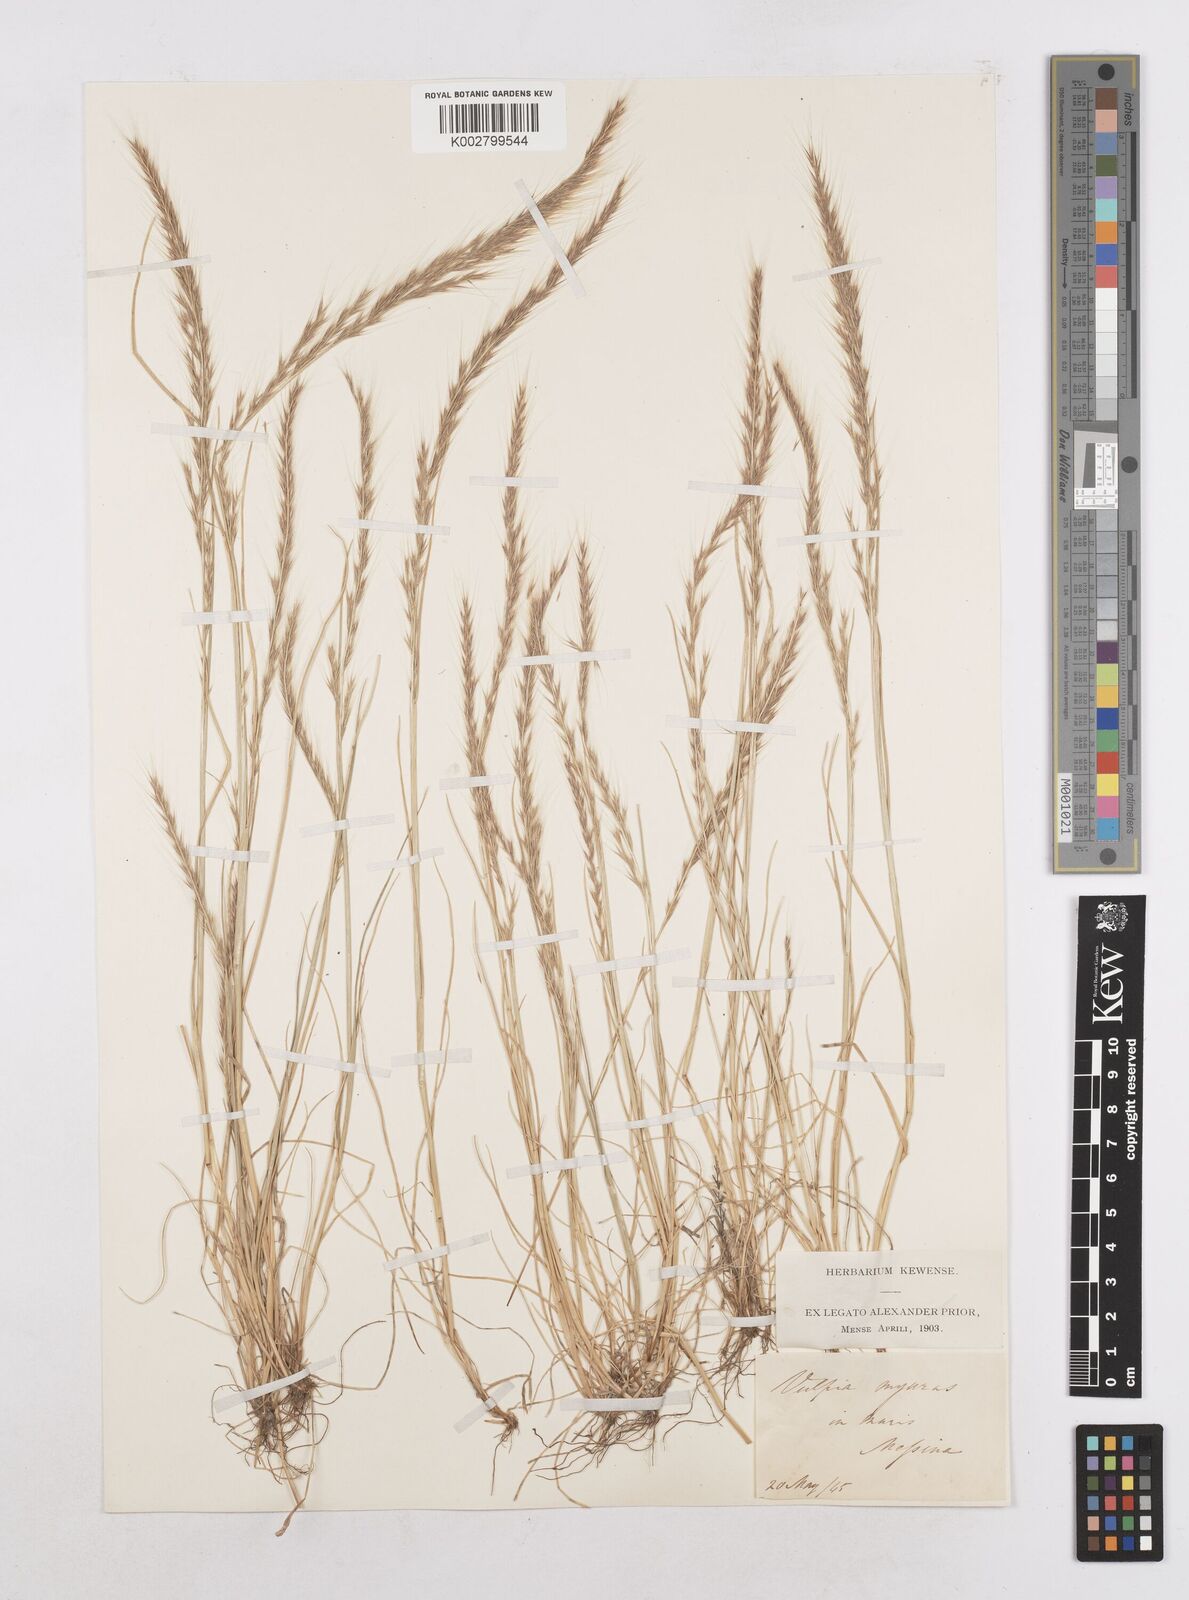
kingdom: Plantae
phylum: Tracheophyta
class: Liliopsida
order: Poales
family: Poaceae
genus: Festuca
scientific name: Festuca myuros
